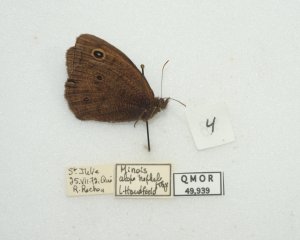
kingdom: Animalia
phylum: Arthropoda
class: Insecta
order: Lepidoptera
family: Nymphalidae
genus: Cercyonis
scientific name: Cercyonis pegala
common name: Common Wood-Nymph
